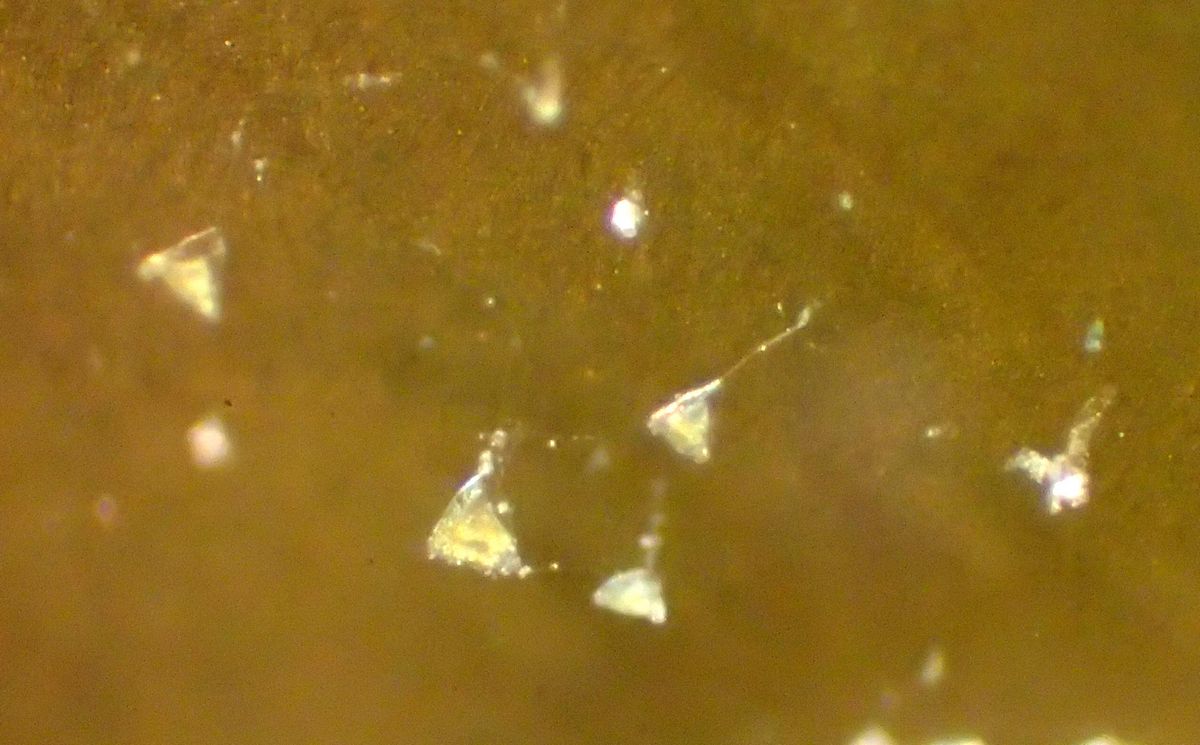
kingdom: Chromista
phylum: Ciliophora
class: Kinetofragminophora
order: Suctorida
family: Acinetidae
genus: Acineta
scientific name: Acineta tuberosa
